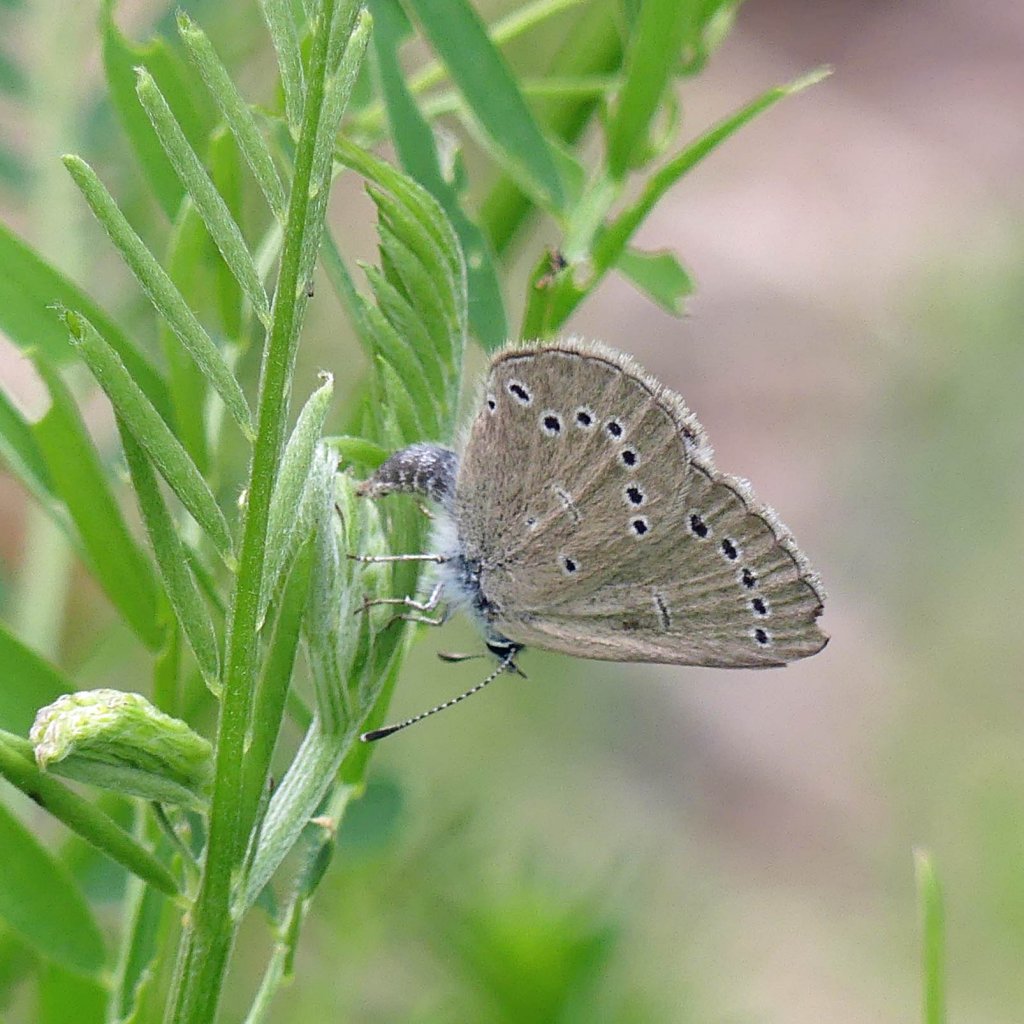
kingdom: Animalia
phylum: Arthropoda
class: Insecta
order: Lepidoptera
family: Lycaenidae
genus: Glaucopsyche
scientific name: Glaucopsyche lygdamus
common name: Silvery Blue
